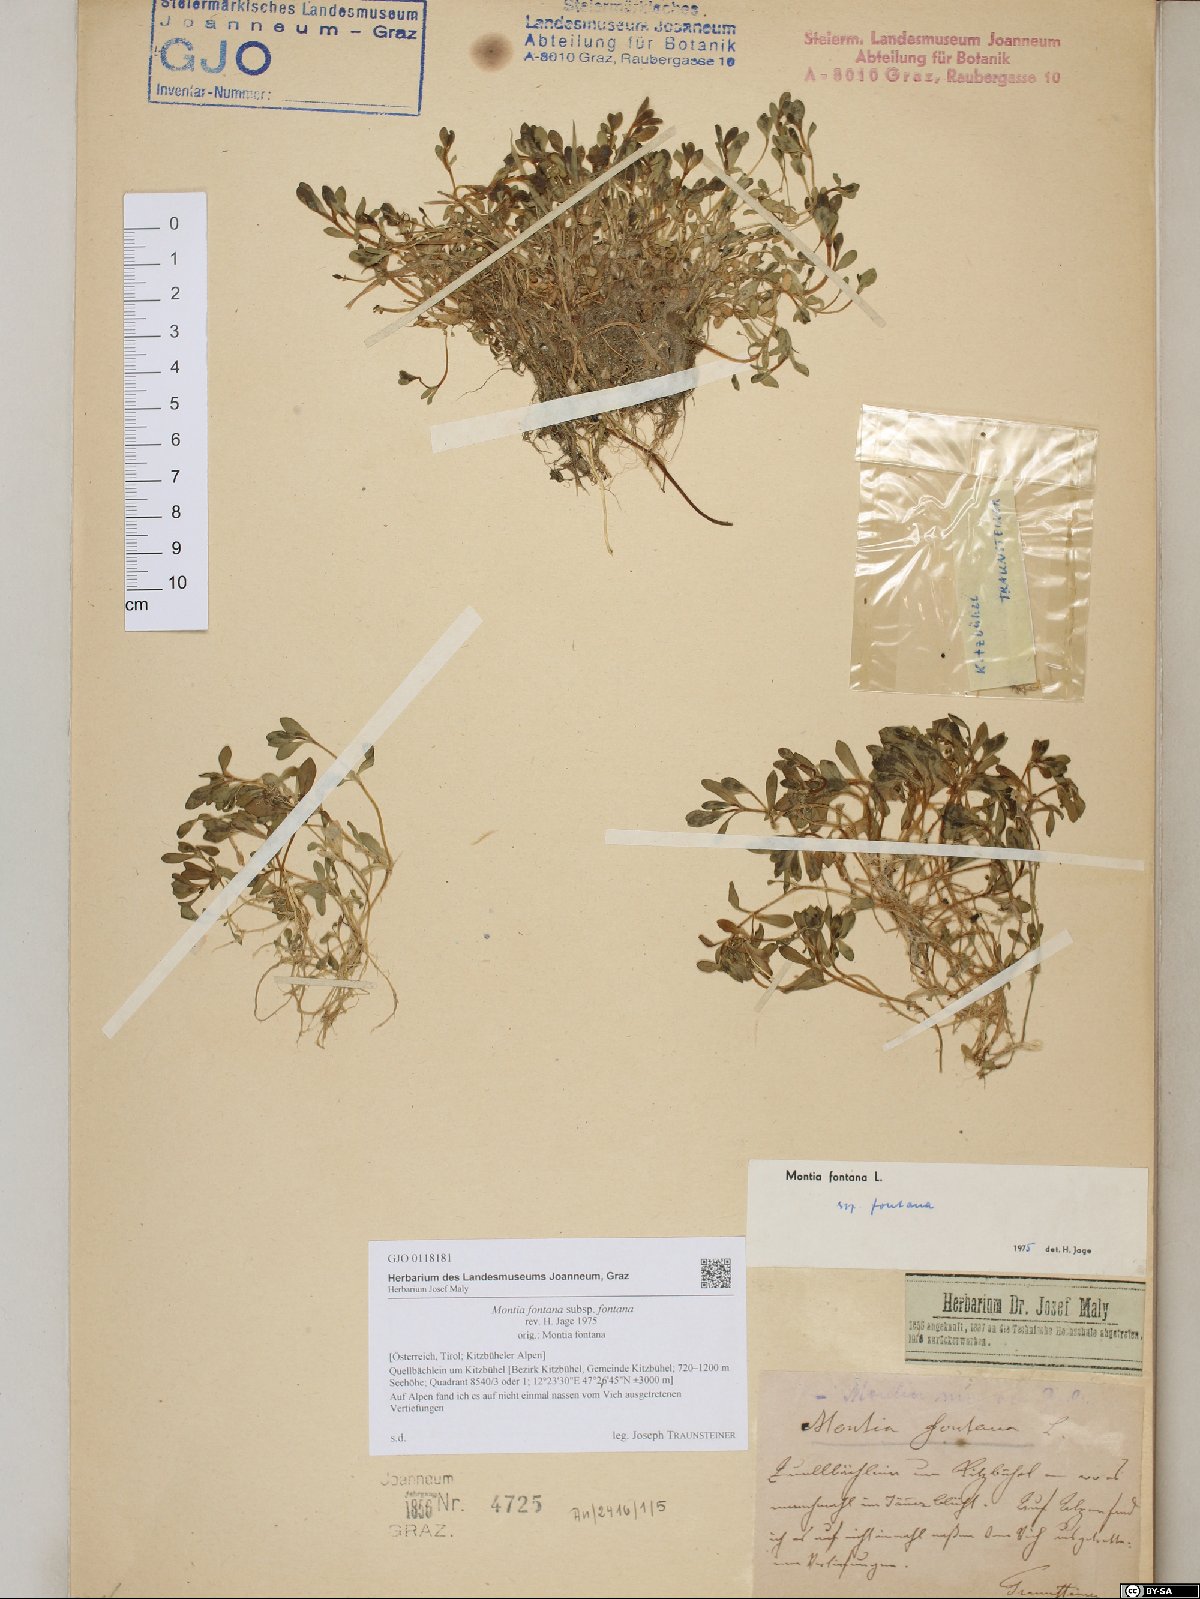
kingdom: Plantae
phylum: Tracheophyta
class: Magnoliopsida
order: Caryophyllales
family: Montiaceae
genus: Montia
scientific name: Montia fontana
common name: Blinks
